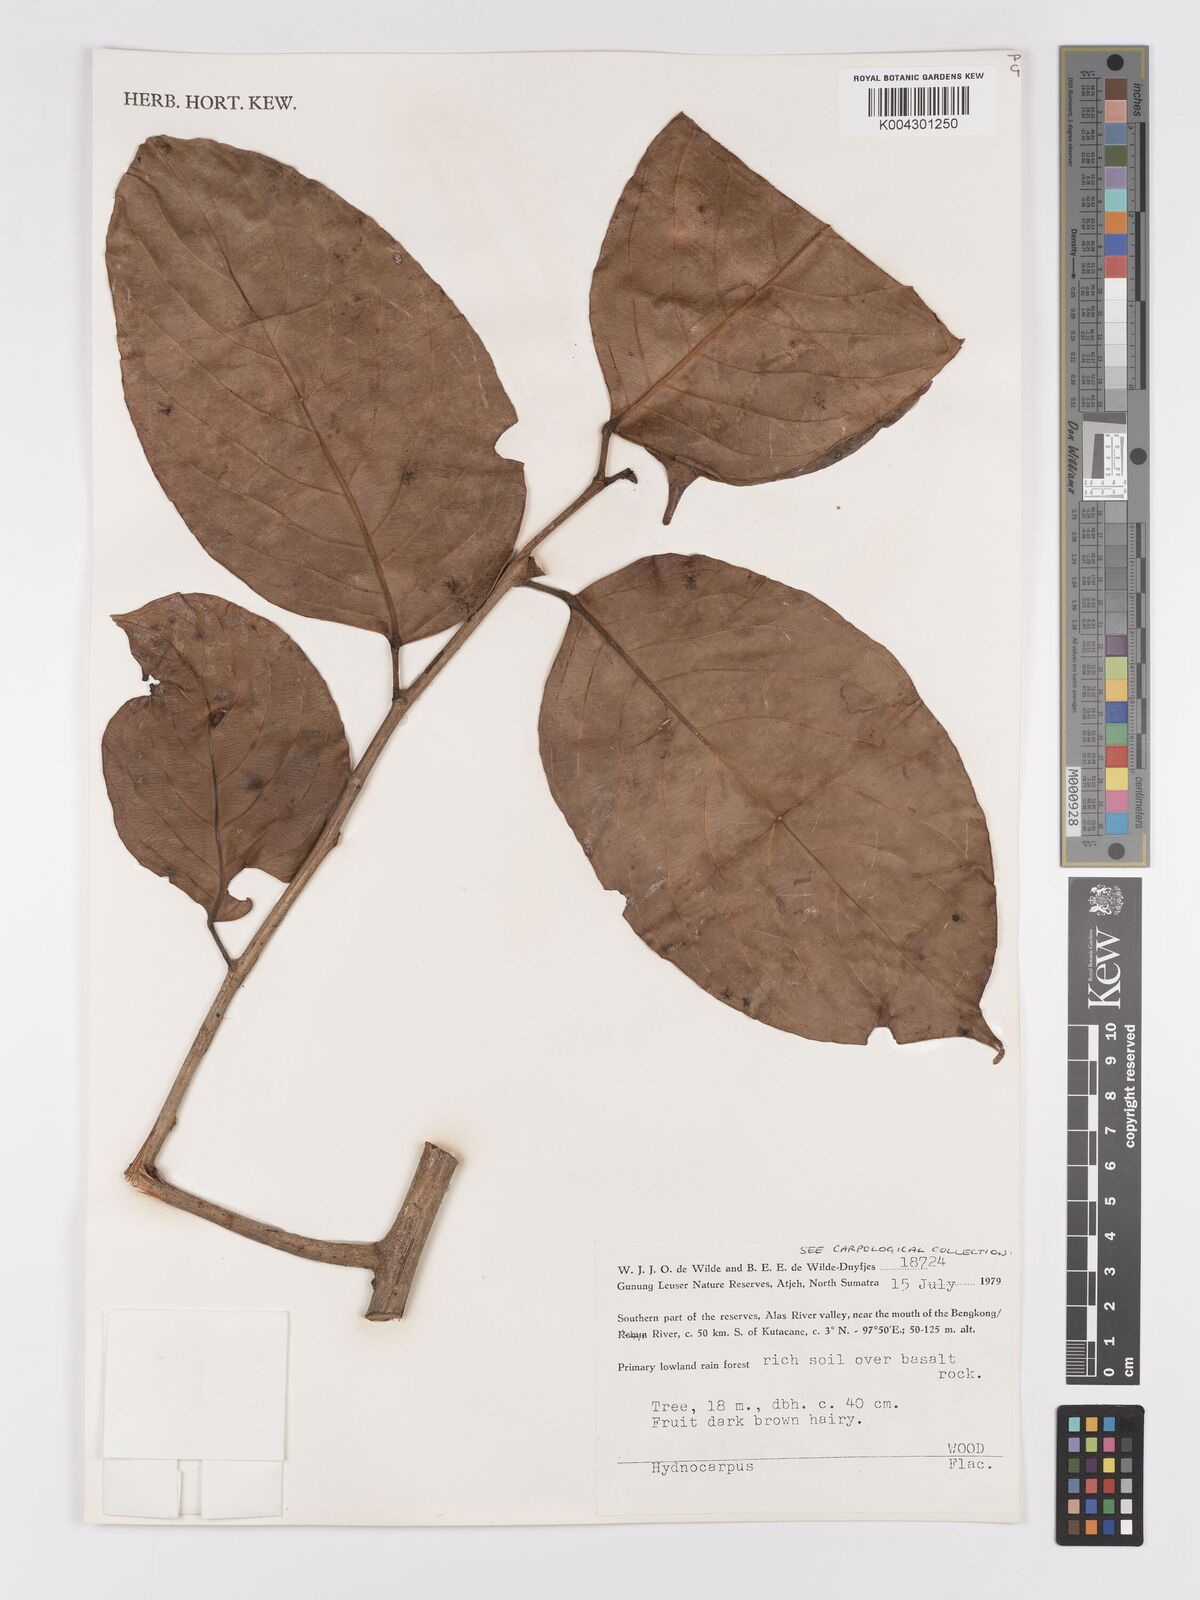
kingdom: Plantae
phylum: Tracheophyta
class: Magnoliopsida
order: Malpighiales
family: Achariaceae
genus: Hydnocarpus
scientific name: Hydnocarpus
